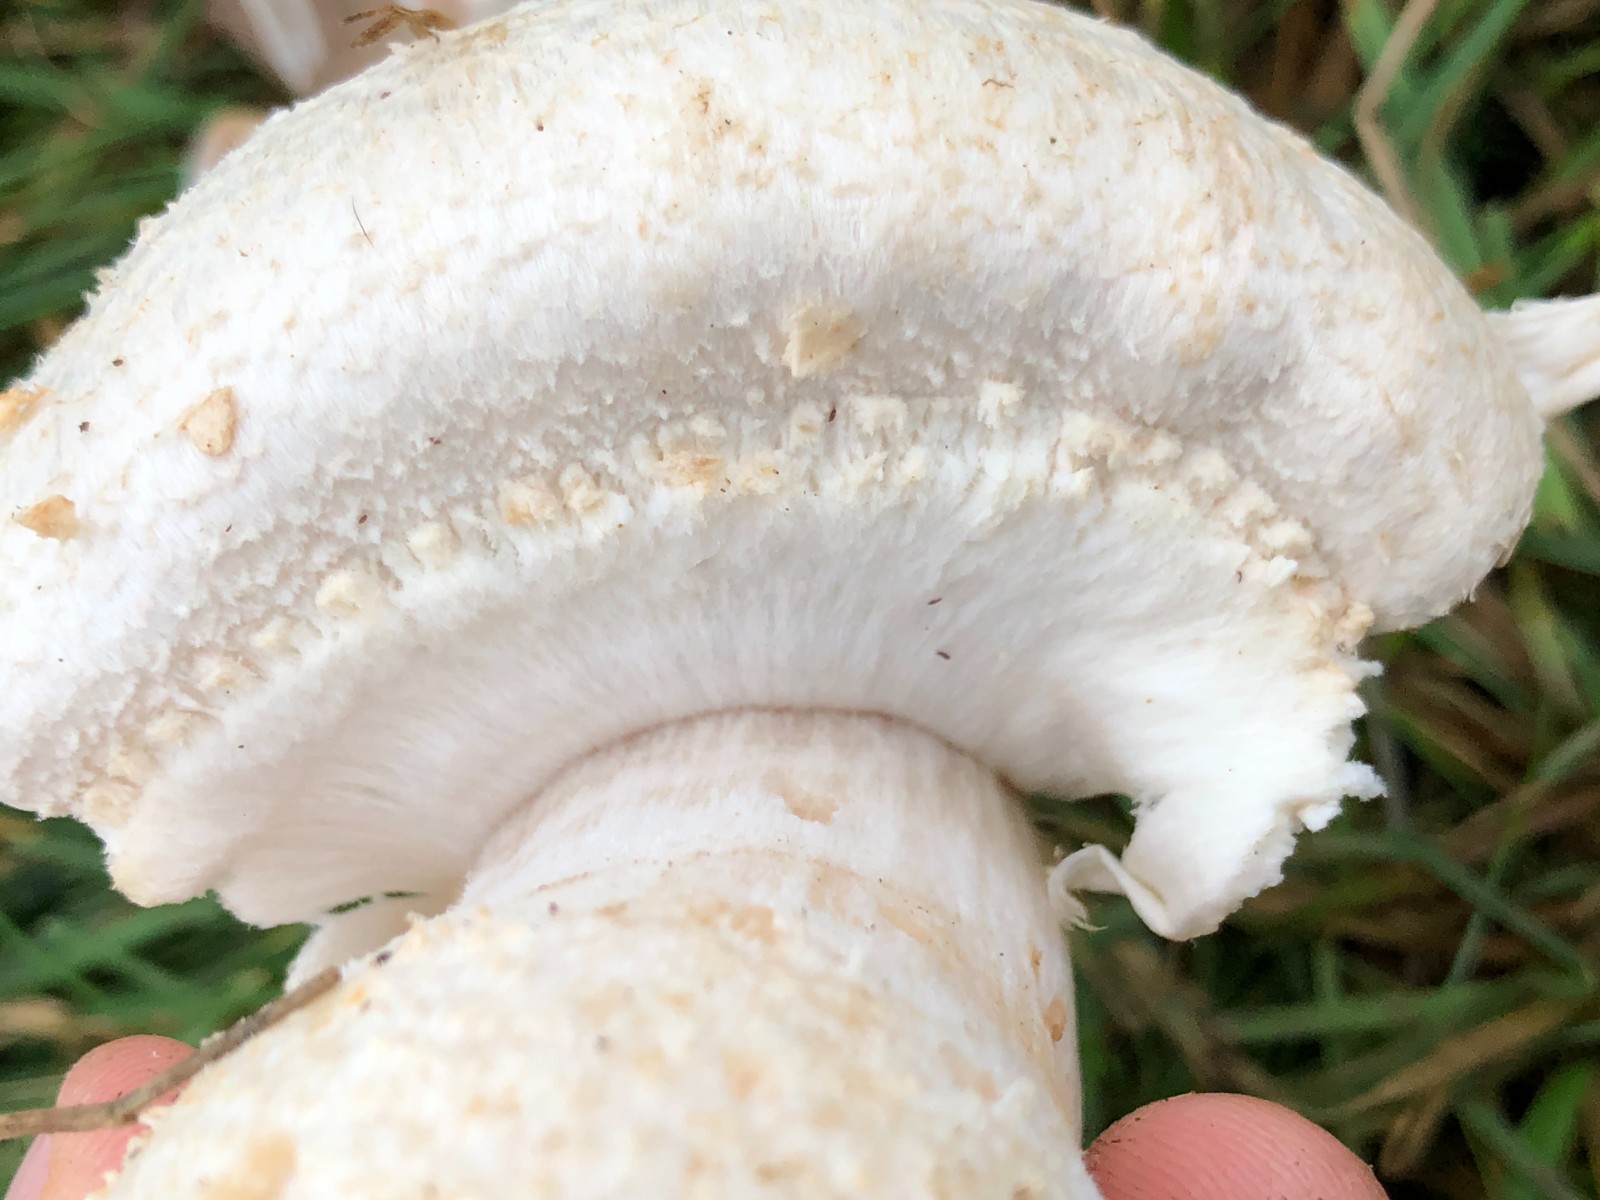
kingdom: Fungi
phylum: Basidiomycota
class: Agaricomycetes
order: Agaricales
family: Agaricaceae
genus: Agaricus
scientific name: Agaricus
